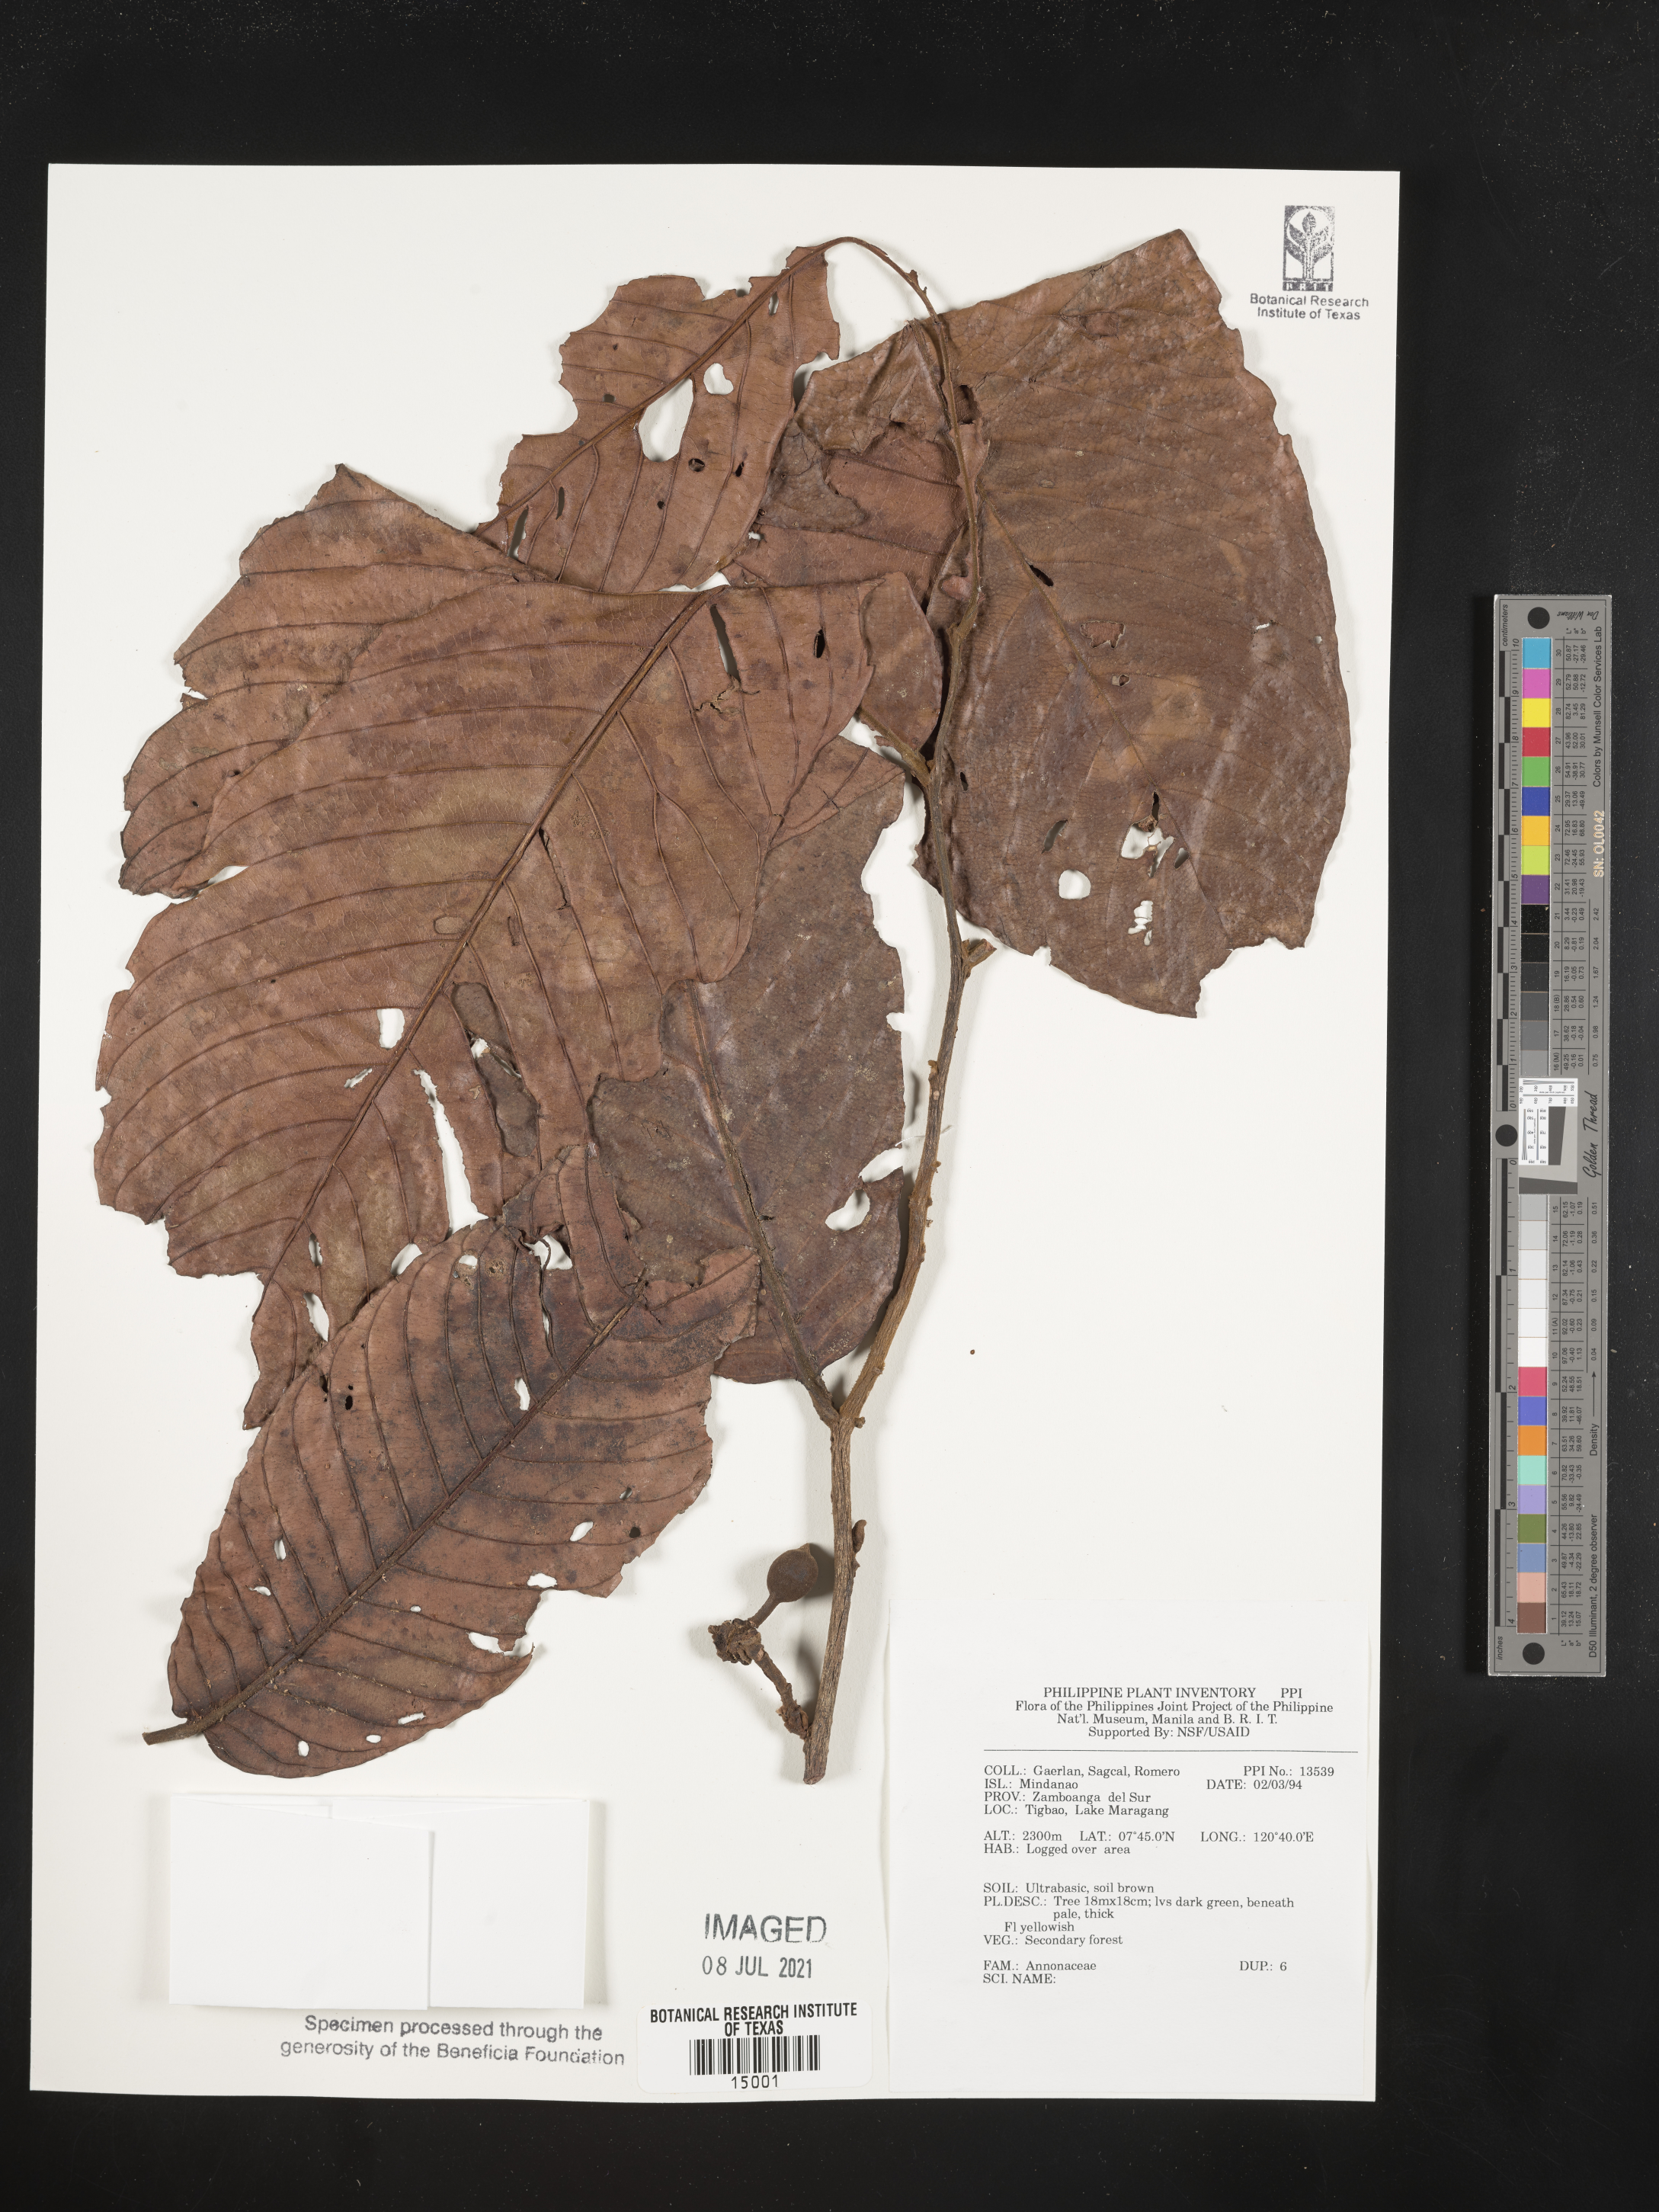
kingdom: Plantae
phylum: Tracheophyta
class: Magnoliopsida
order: Magnoliales
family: Annonaceae
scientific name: Annonaceae
